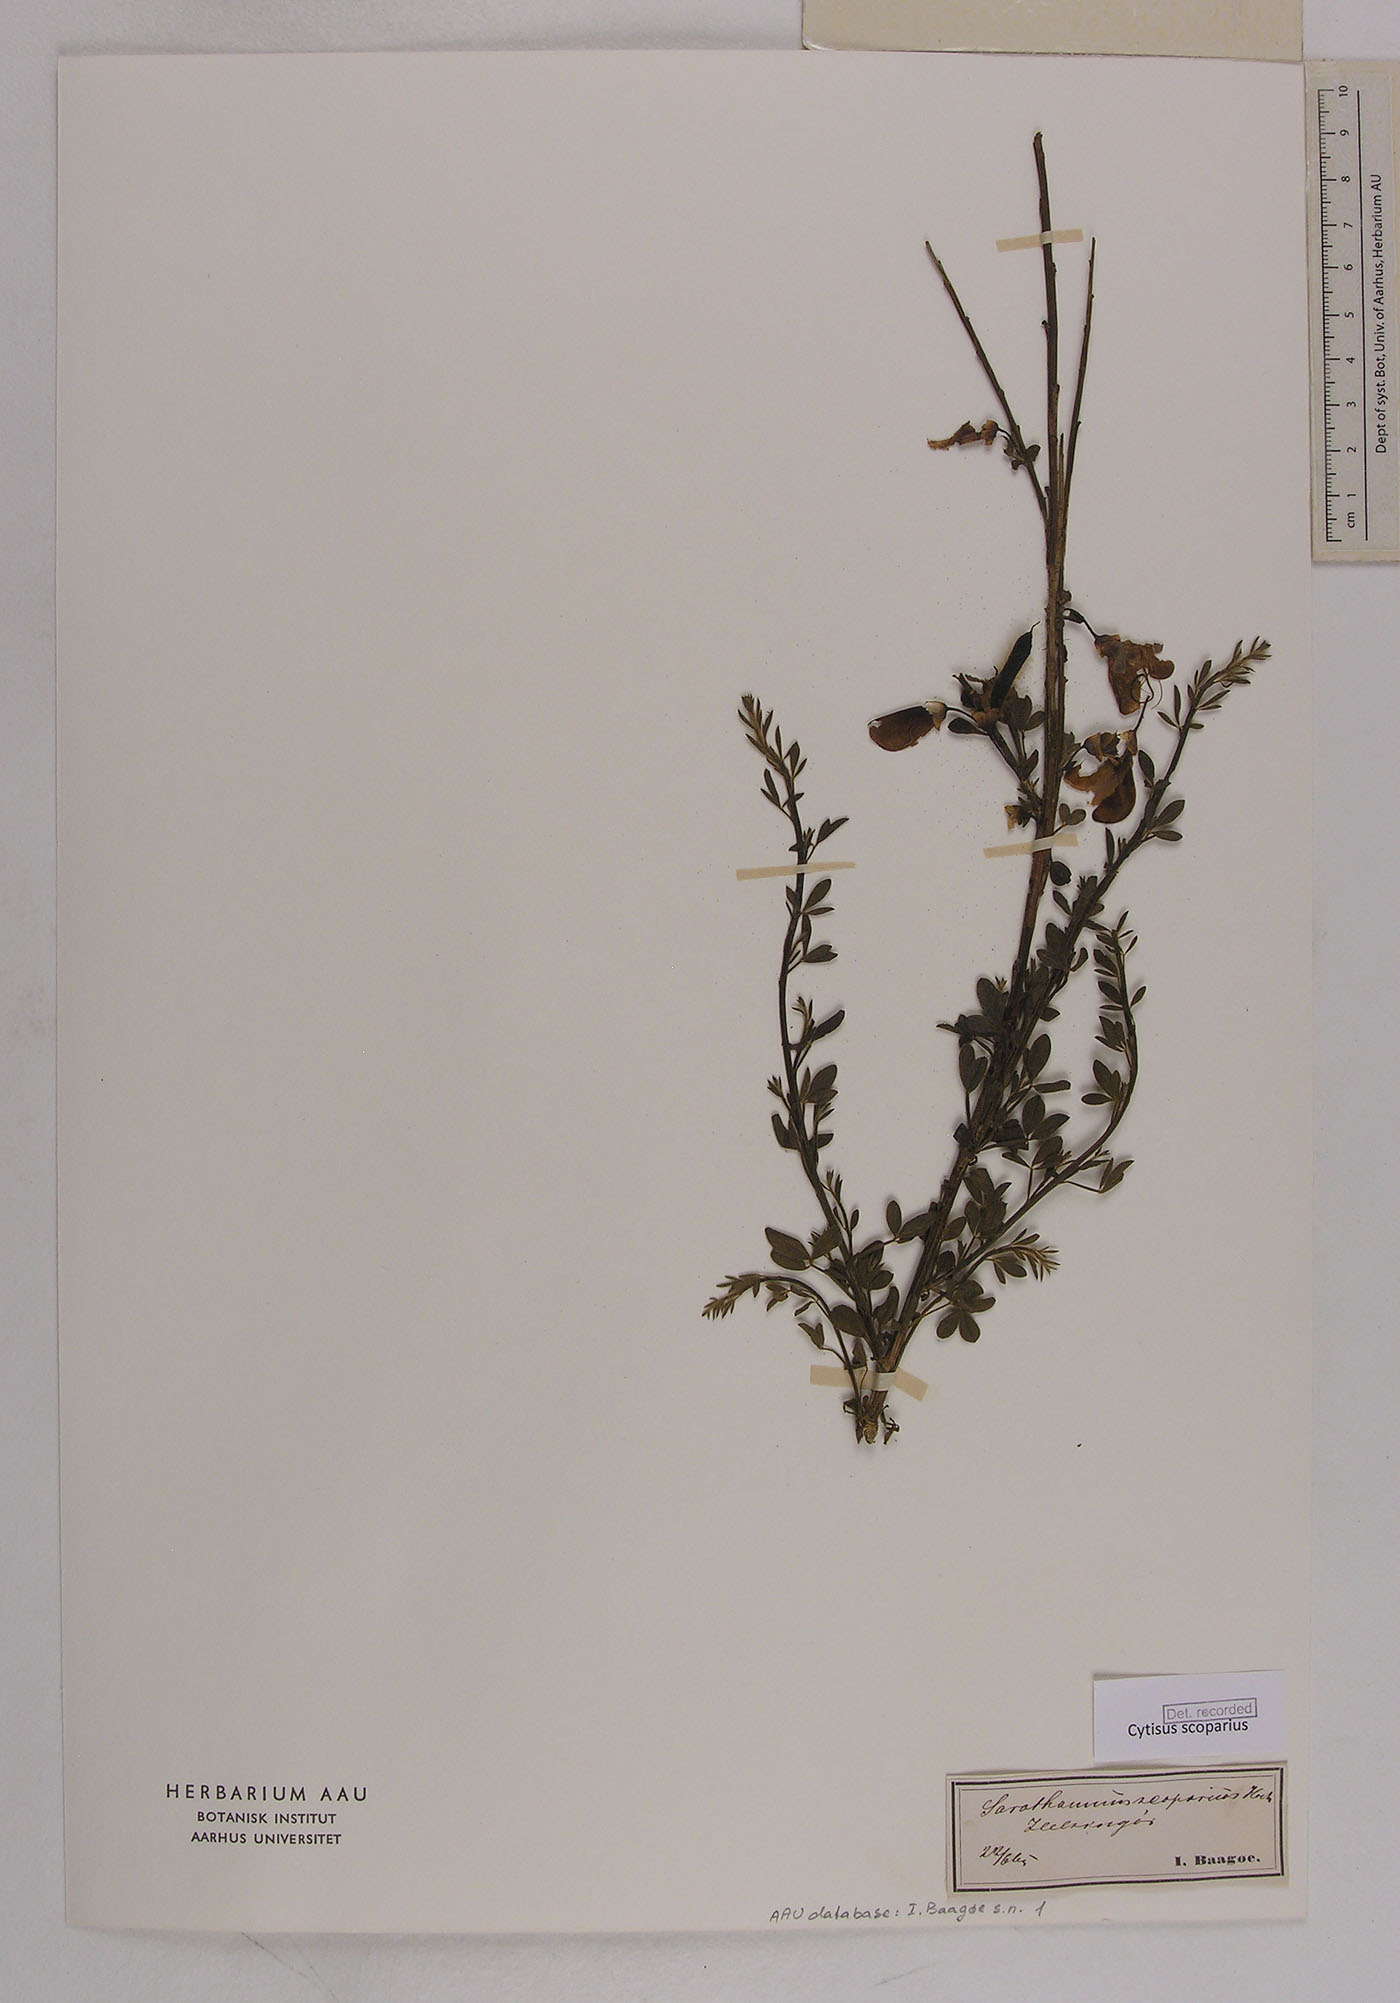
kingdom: Plantae
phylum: Tracheophyta
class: Magnoliopsida
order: Fabales
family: Fabaceae
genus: Cytisus
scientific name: Cytisus scoparius
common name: Scotch broom
